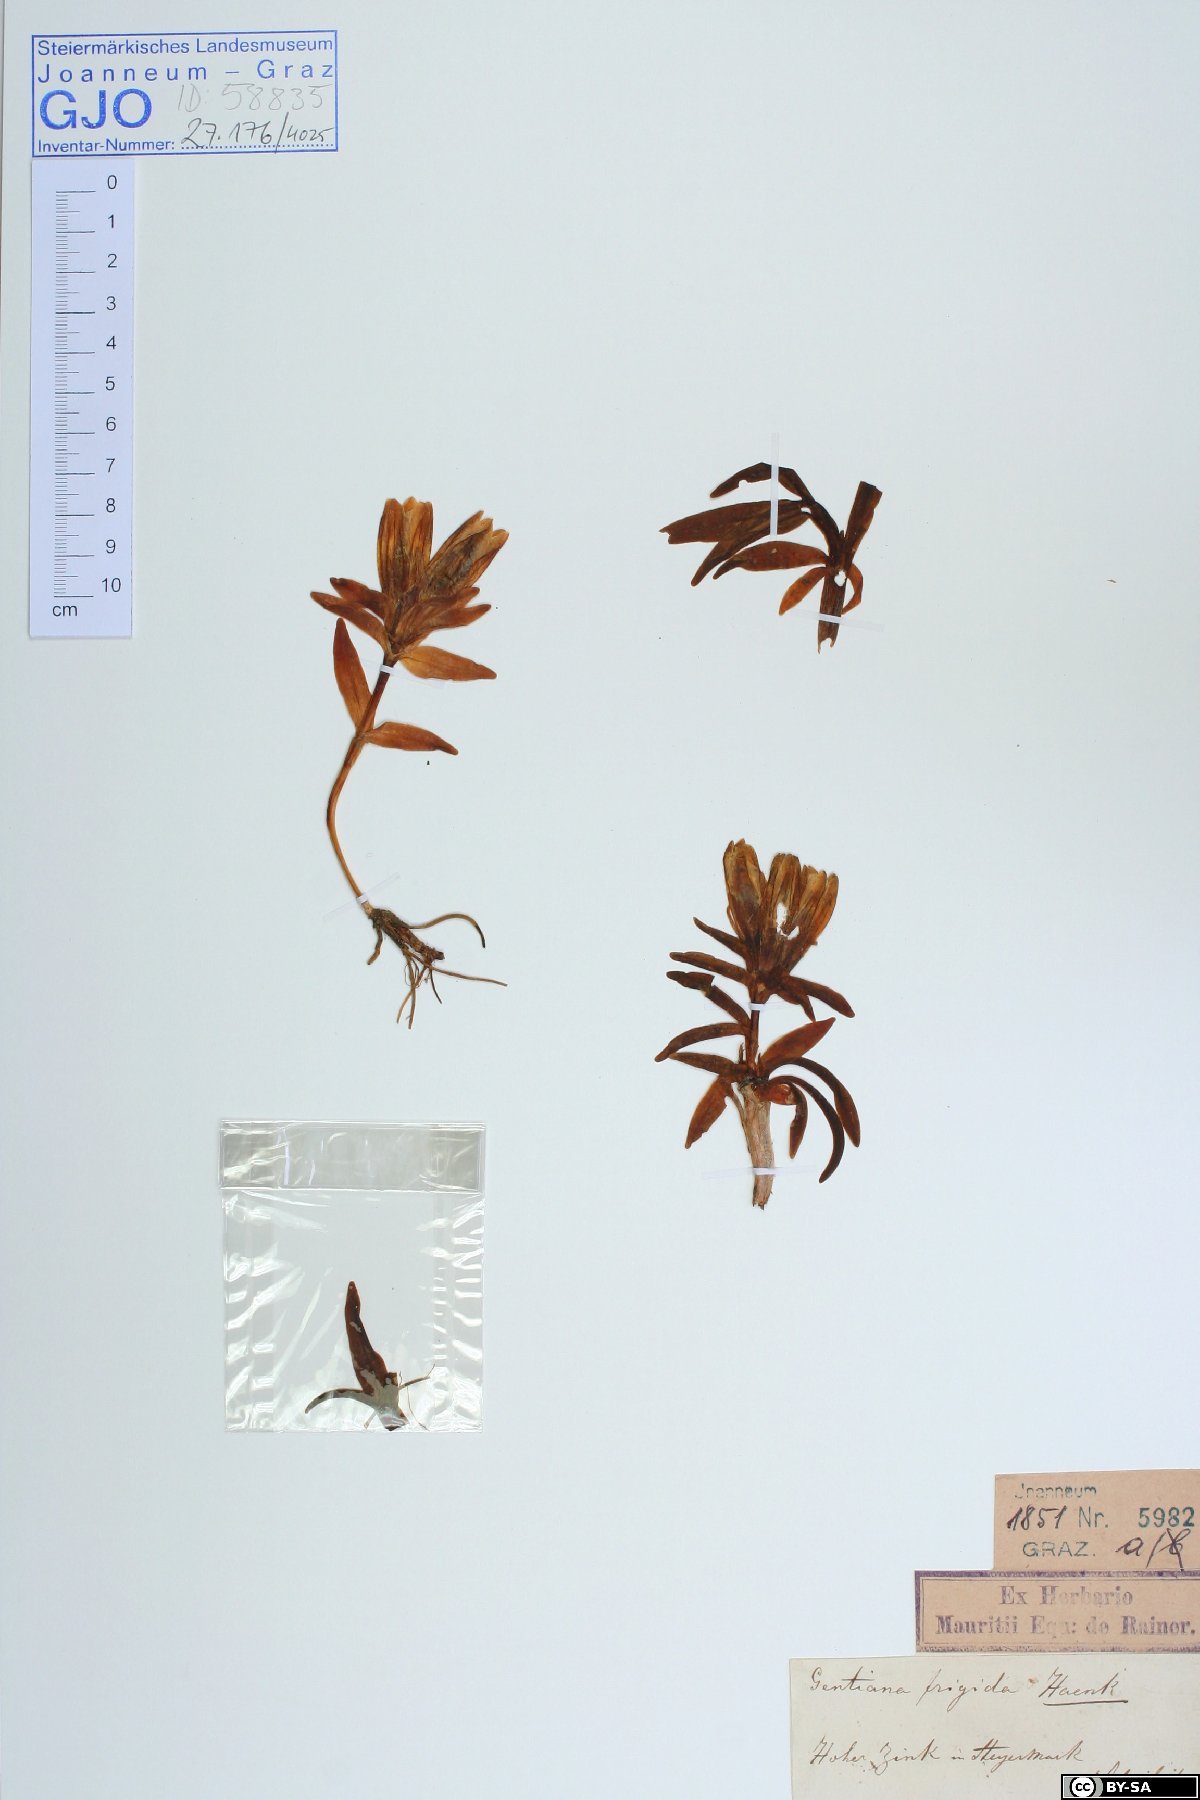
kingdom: Plantae
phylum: Tracheophyta
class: Magnoliopsida
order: Gentianales
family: Gentianaceae
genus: Gentiana
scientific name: Gentiana frigida
